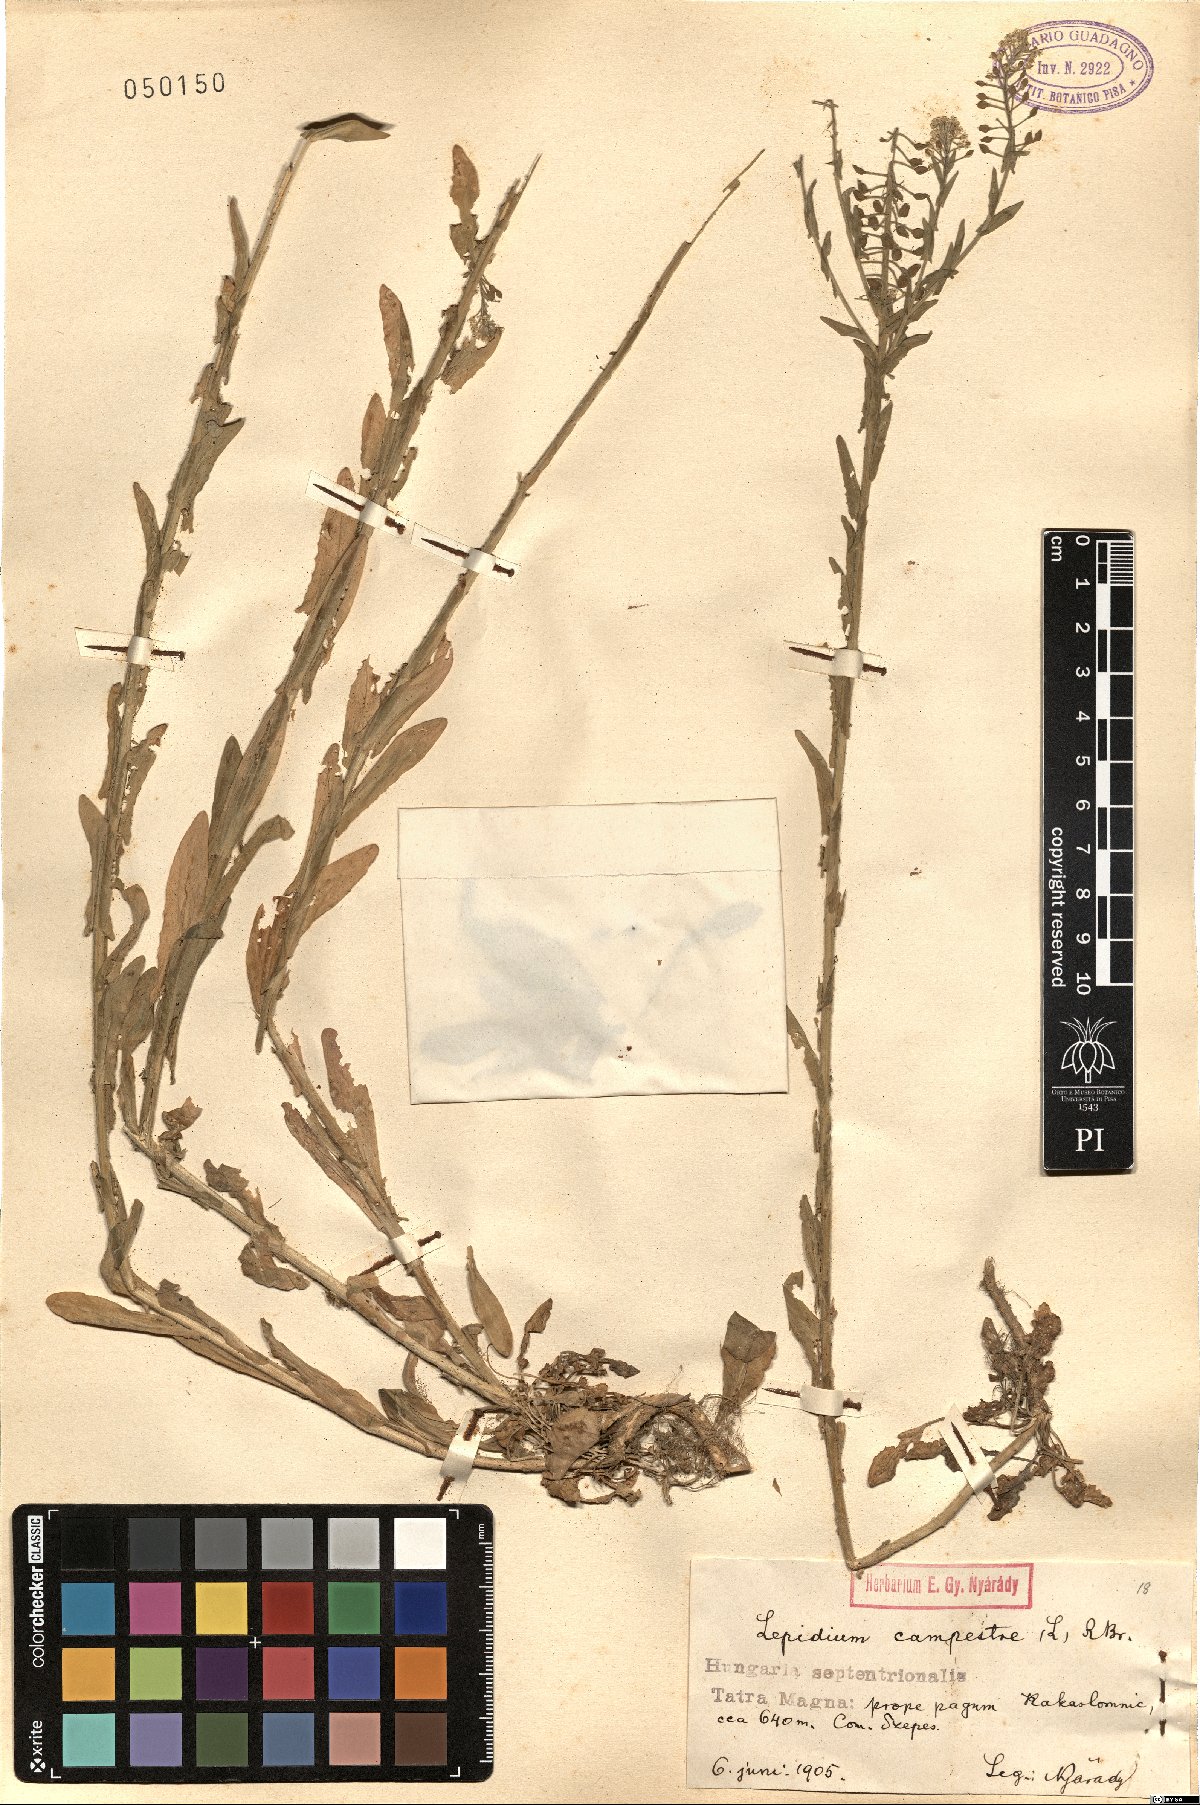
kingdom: Plantae
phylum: Tracheophyta
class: Magnoliopsida
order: Brassicales
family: Brassicaceae
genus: Lepidium
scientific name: Lepidium campestre
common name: Field pepperwort
